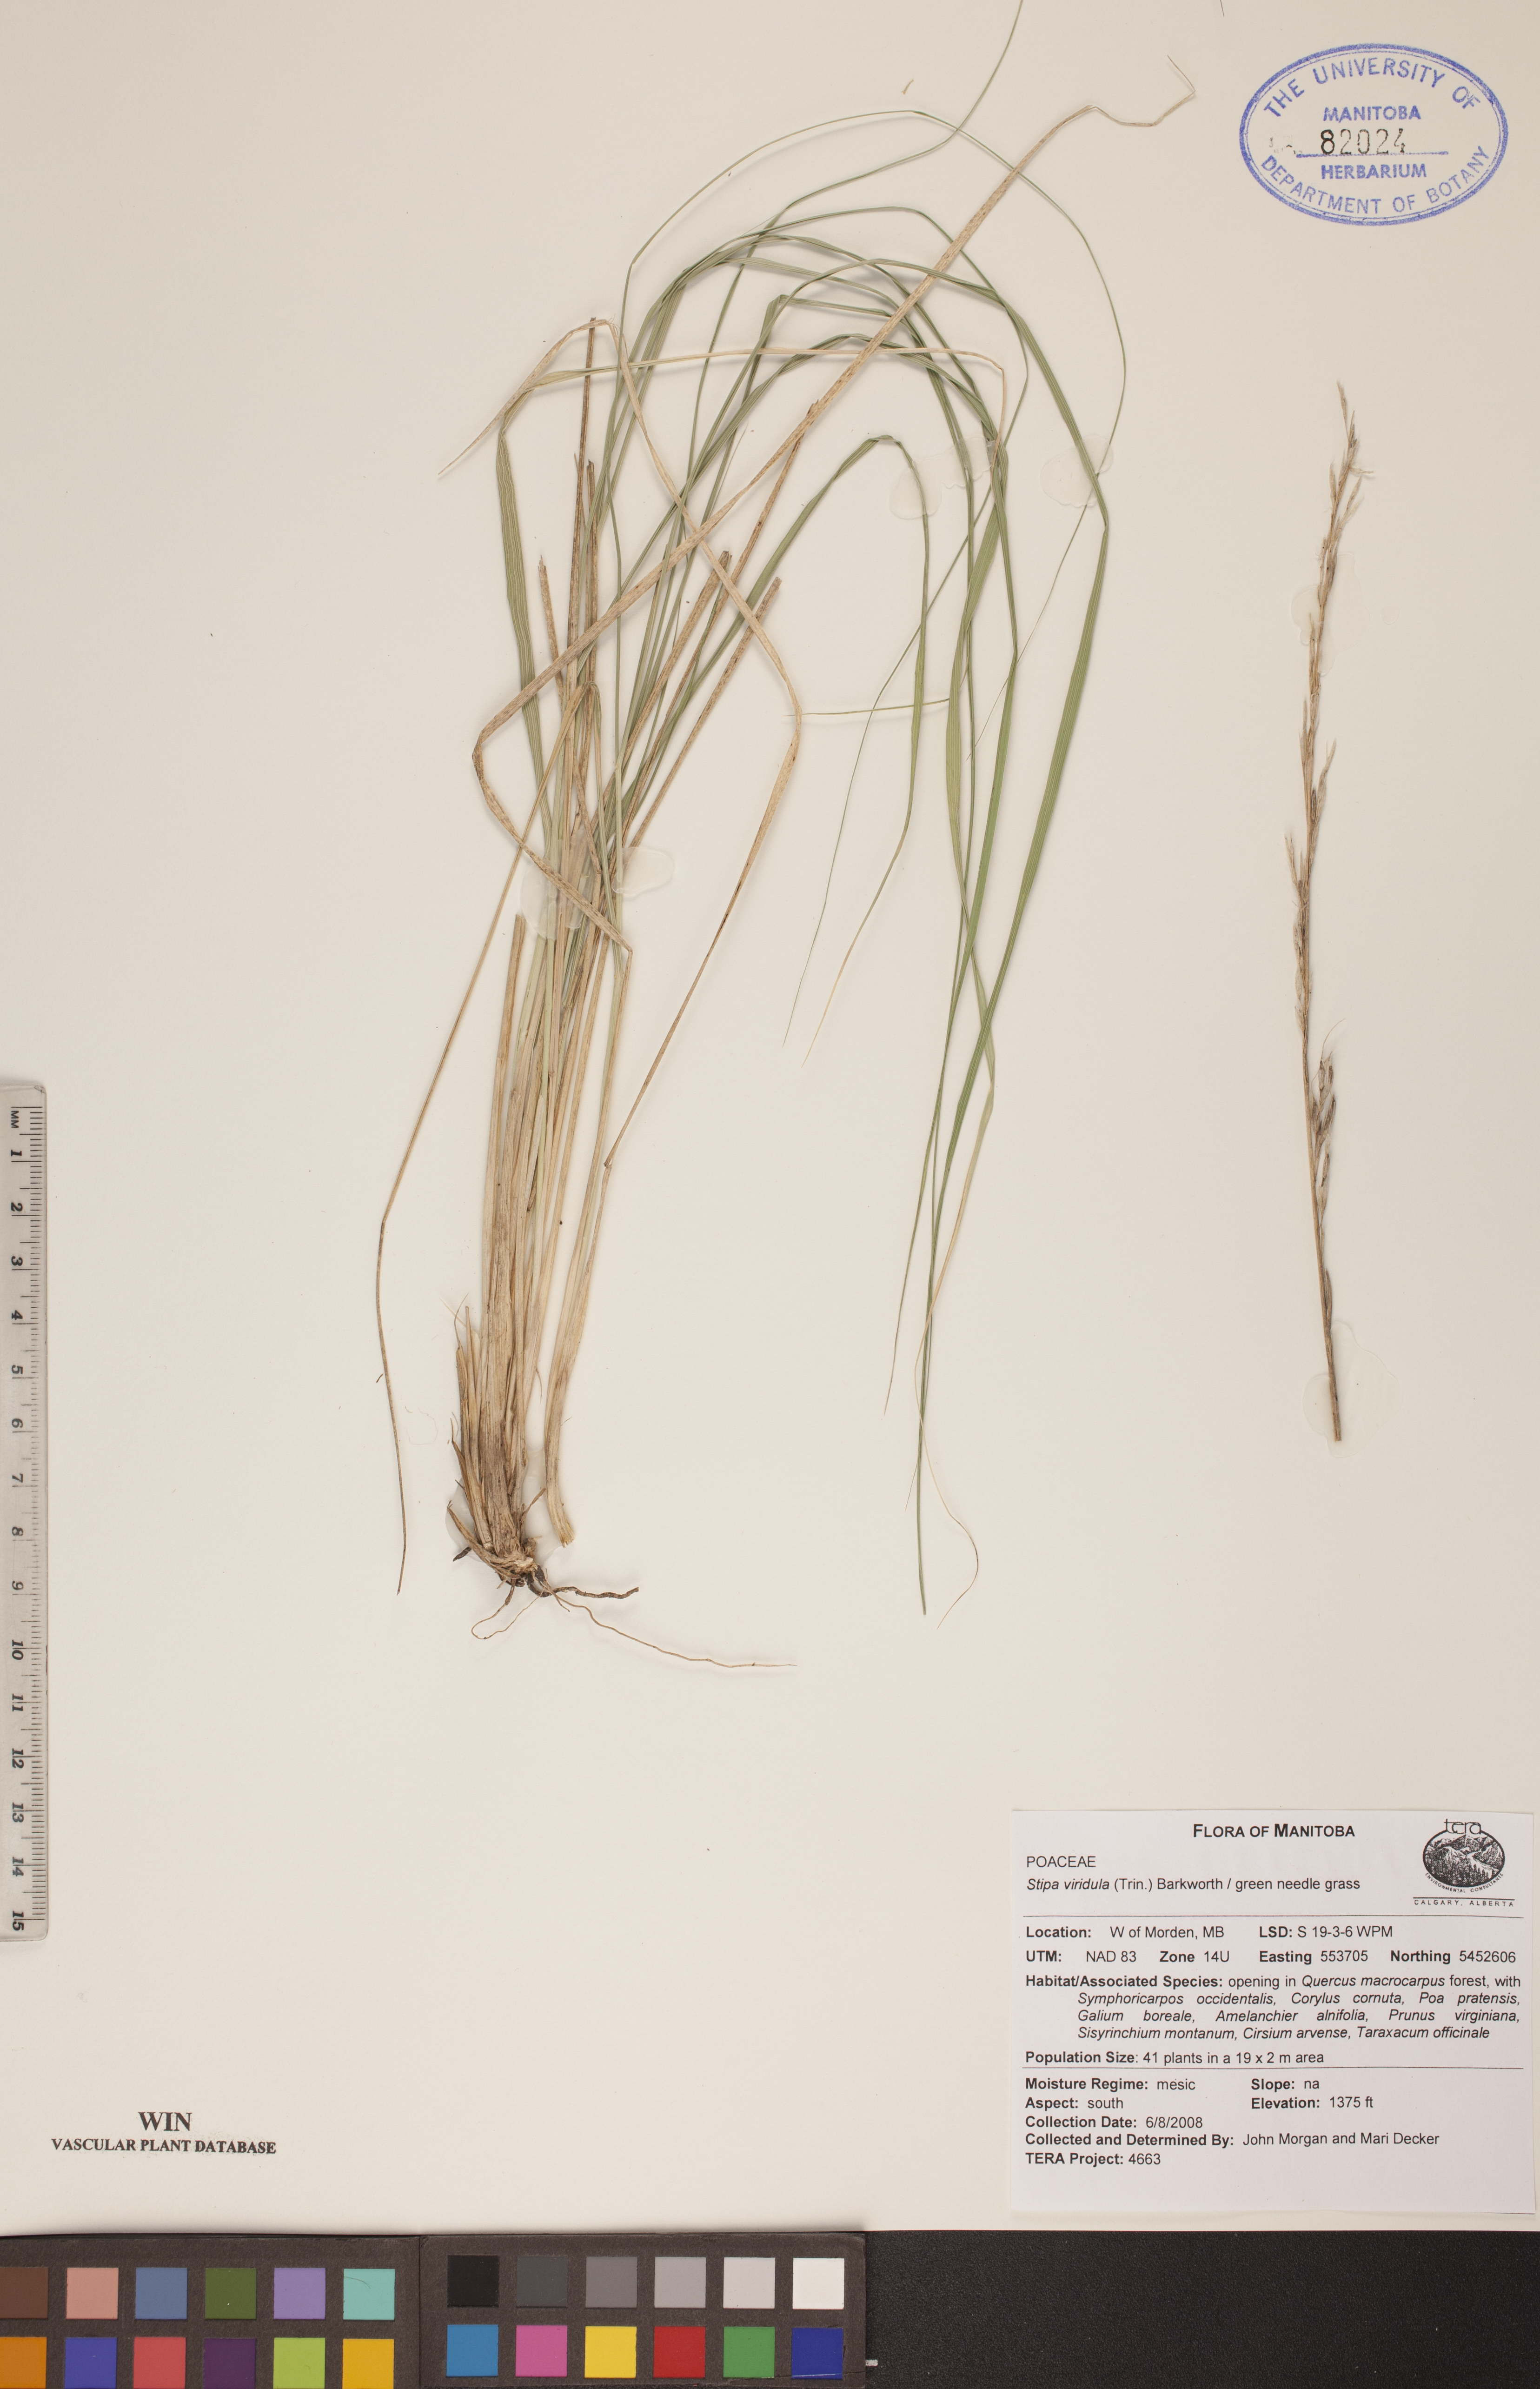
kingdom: Plantae
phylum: Tracheophyta
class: Liliopsida
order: Poales
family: Poaceae
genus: Nassella
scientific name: Nassella viridula
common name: Green needlegrass
